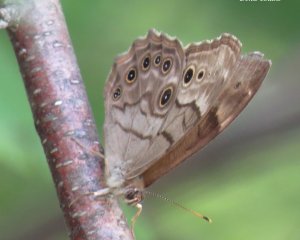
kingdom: Animalia
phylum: Arthropoda
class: Insecta
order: Lepidoptera
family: Nymphalidae
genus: Lethe
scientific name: Lethe anthedon
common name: Northern Pearly-Eye
